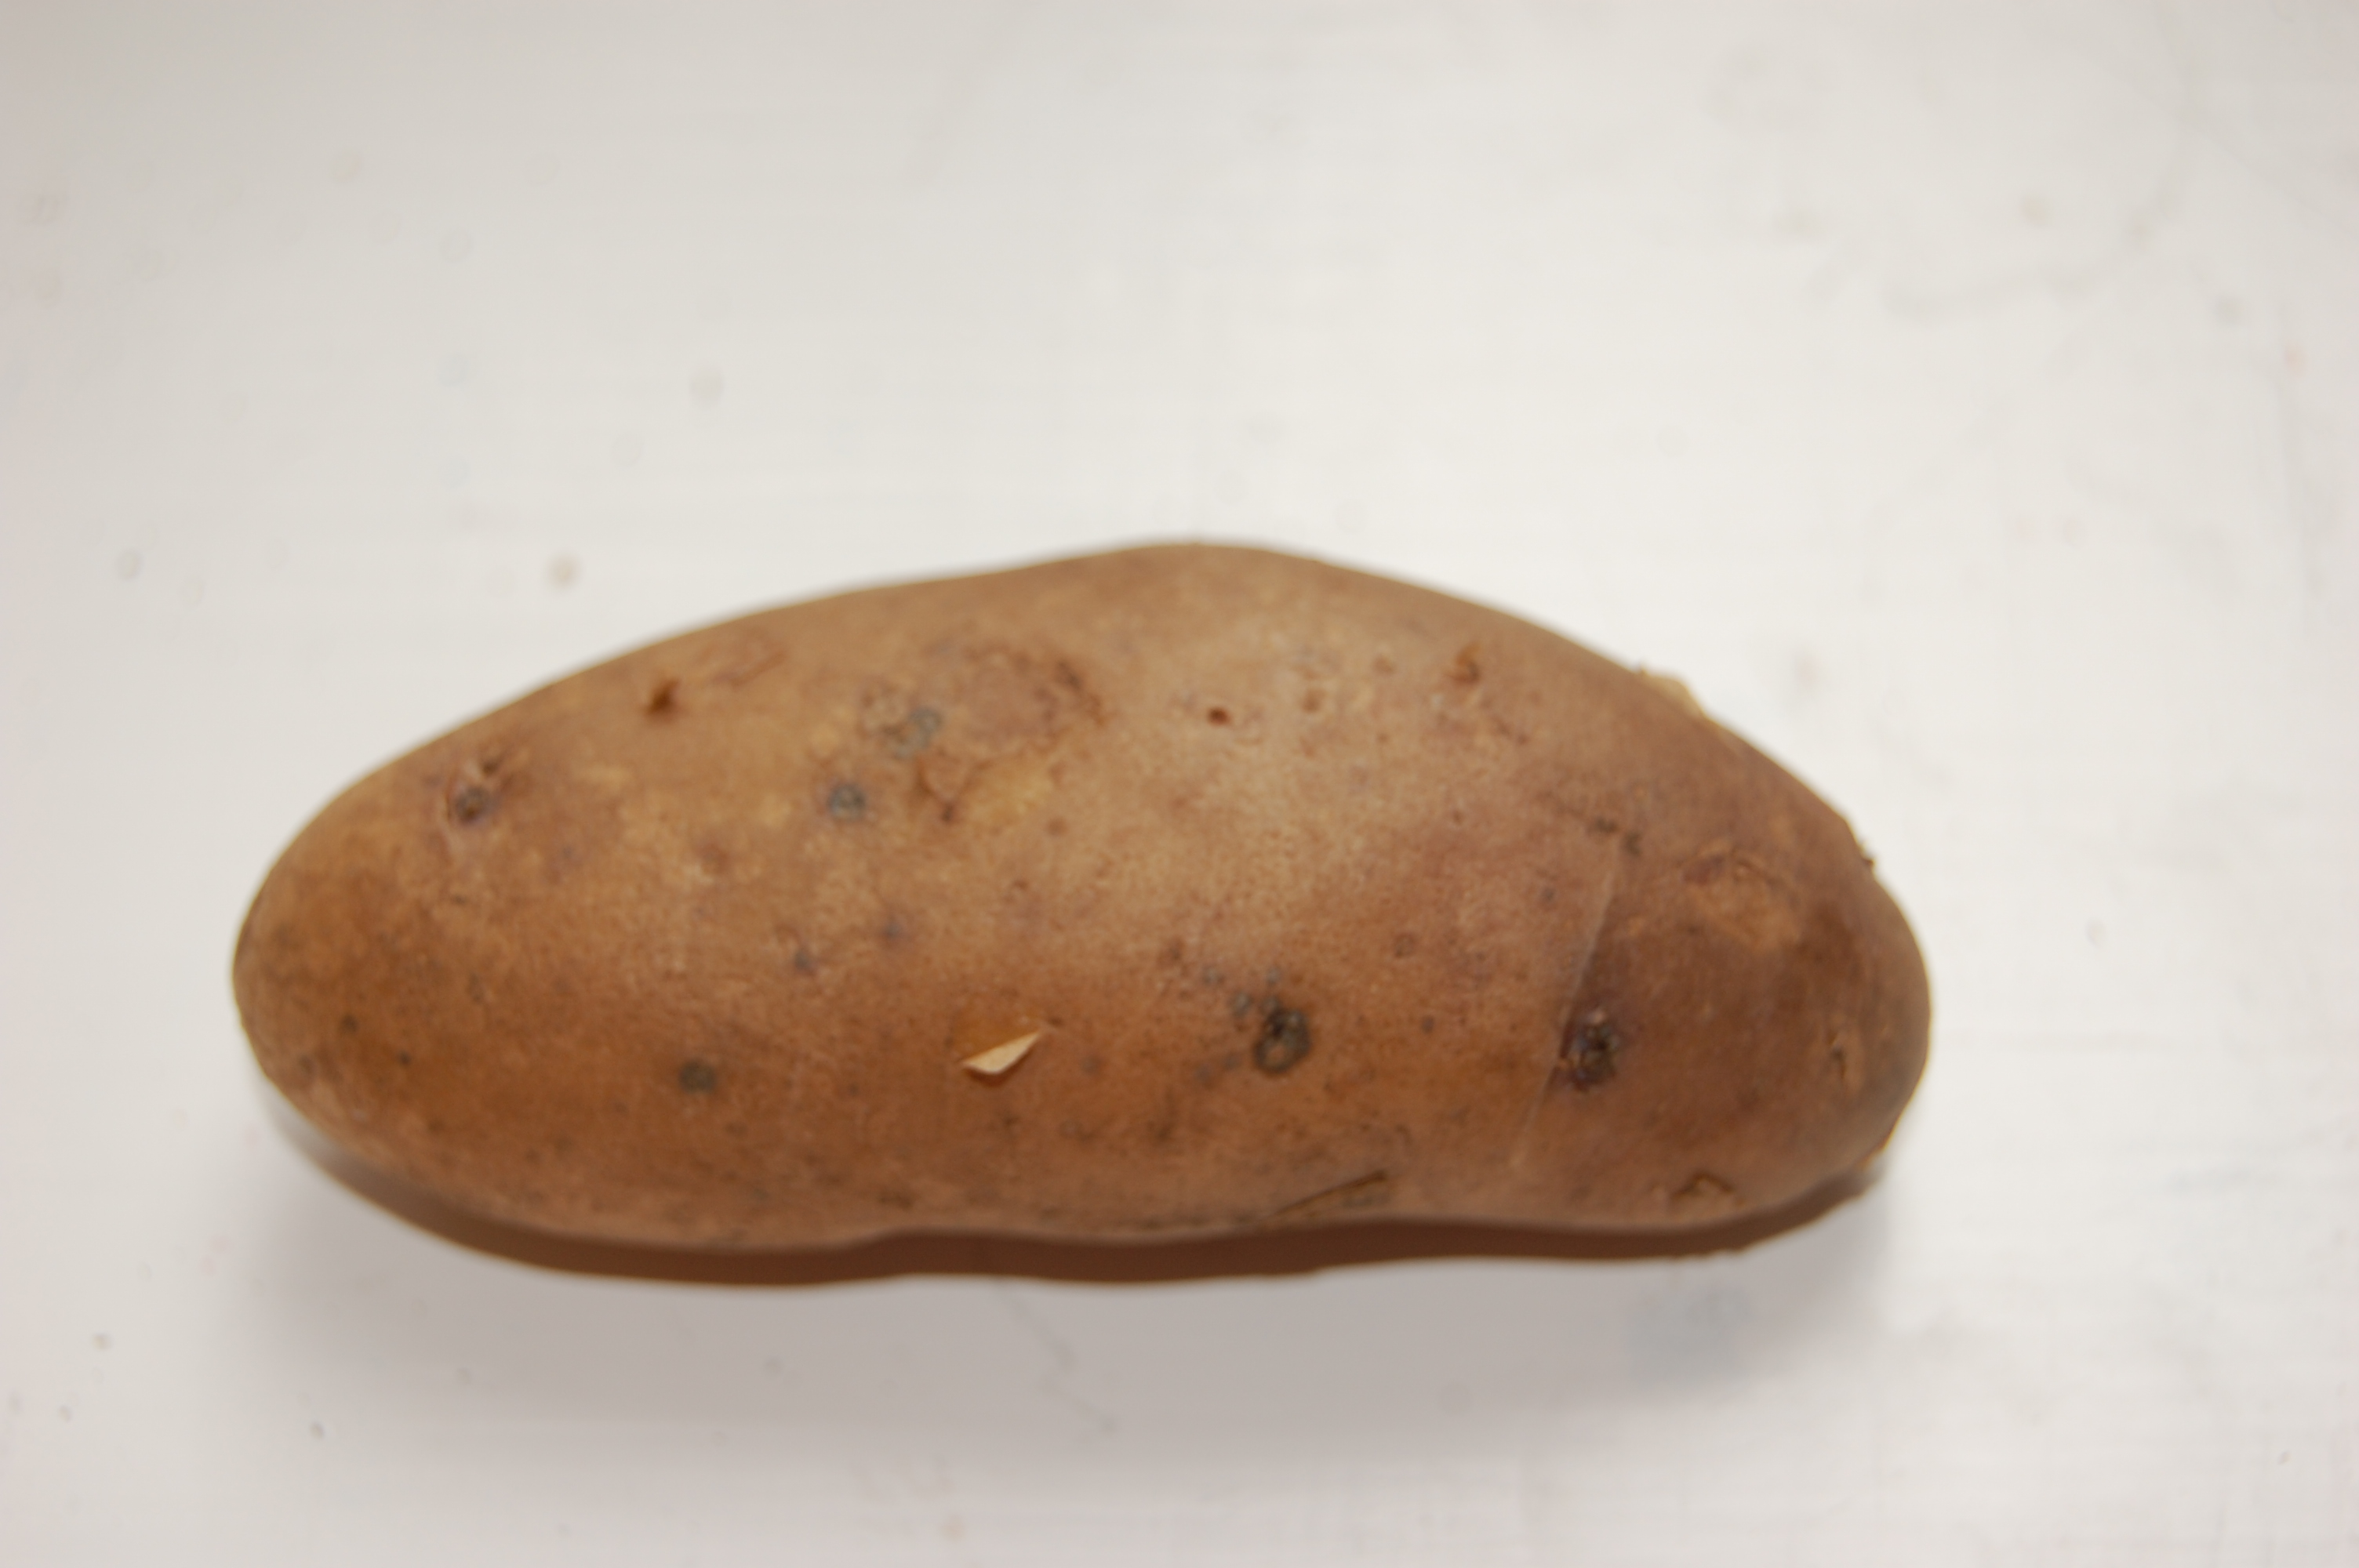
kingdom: Plantae
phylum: Tracheophyta
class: Magnoliopsida
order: Solanales
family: Solanaceae
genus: Solanum
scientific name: Solanum tuberosum
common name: Potato
